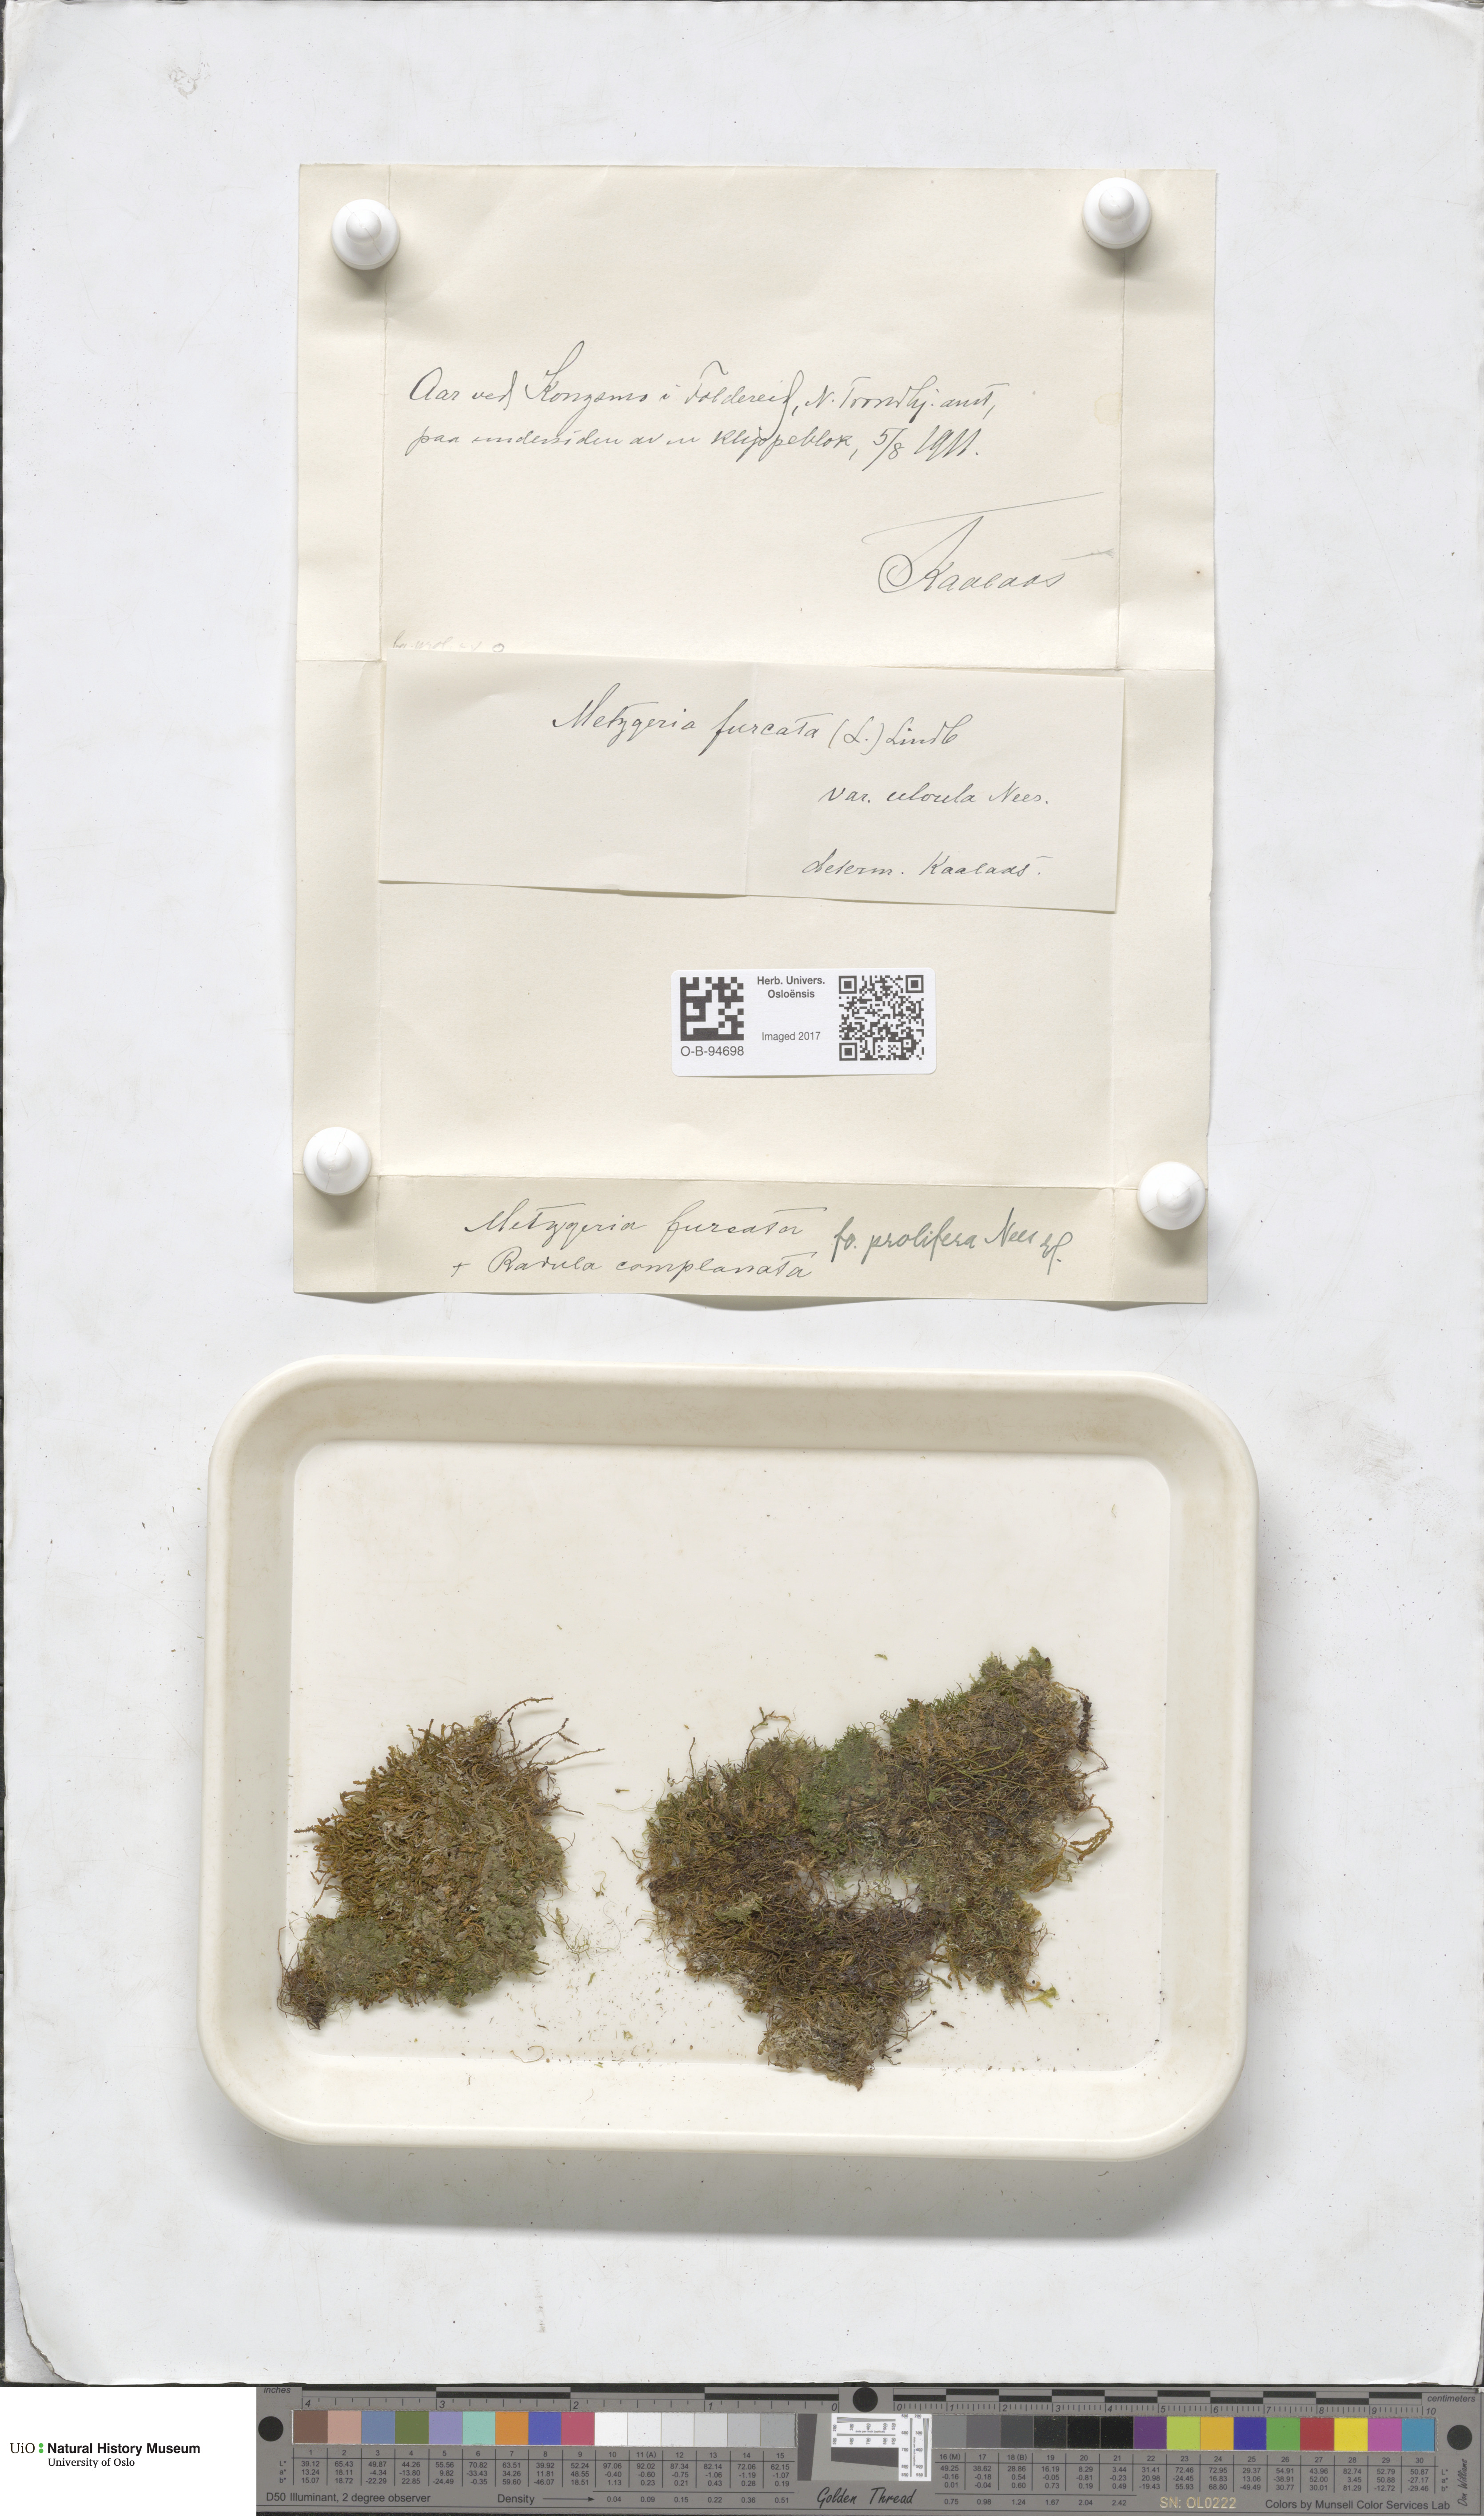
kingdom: Plantae
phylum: Marchantiophyta
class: Jungermanniopsida
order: Metzgeriales
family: Metzgeriaceae
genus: Metzgeria
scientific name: Metzgeria furcata
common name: Forked veilwort
